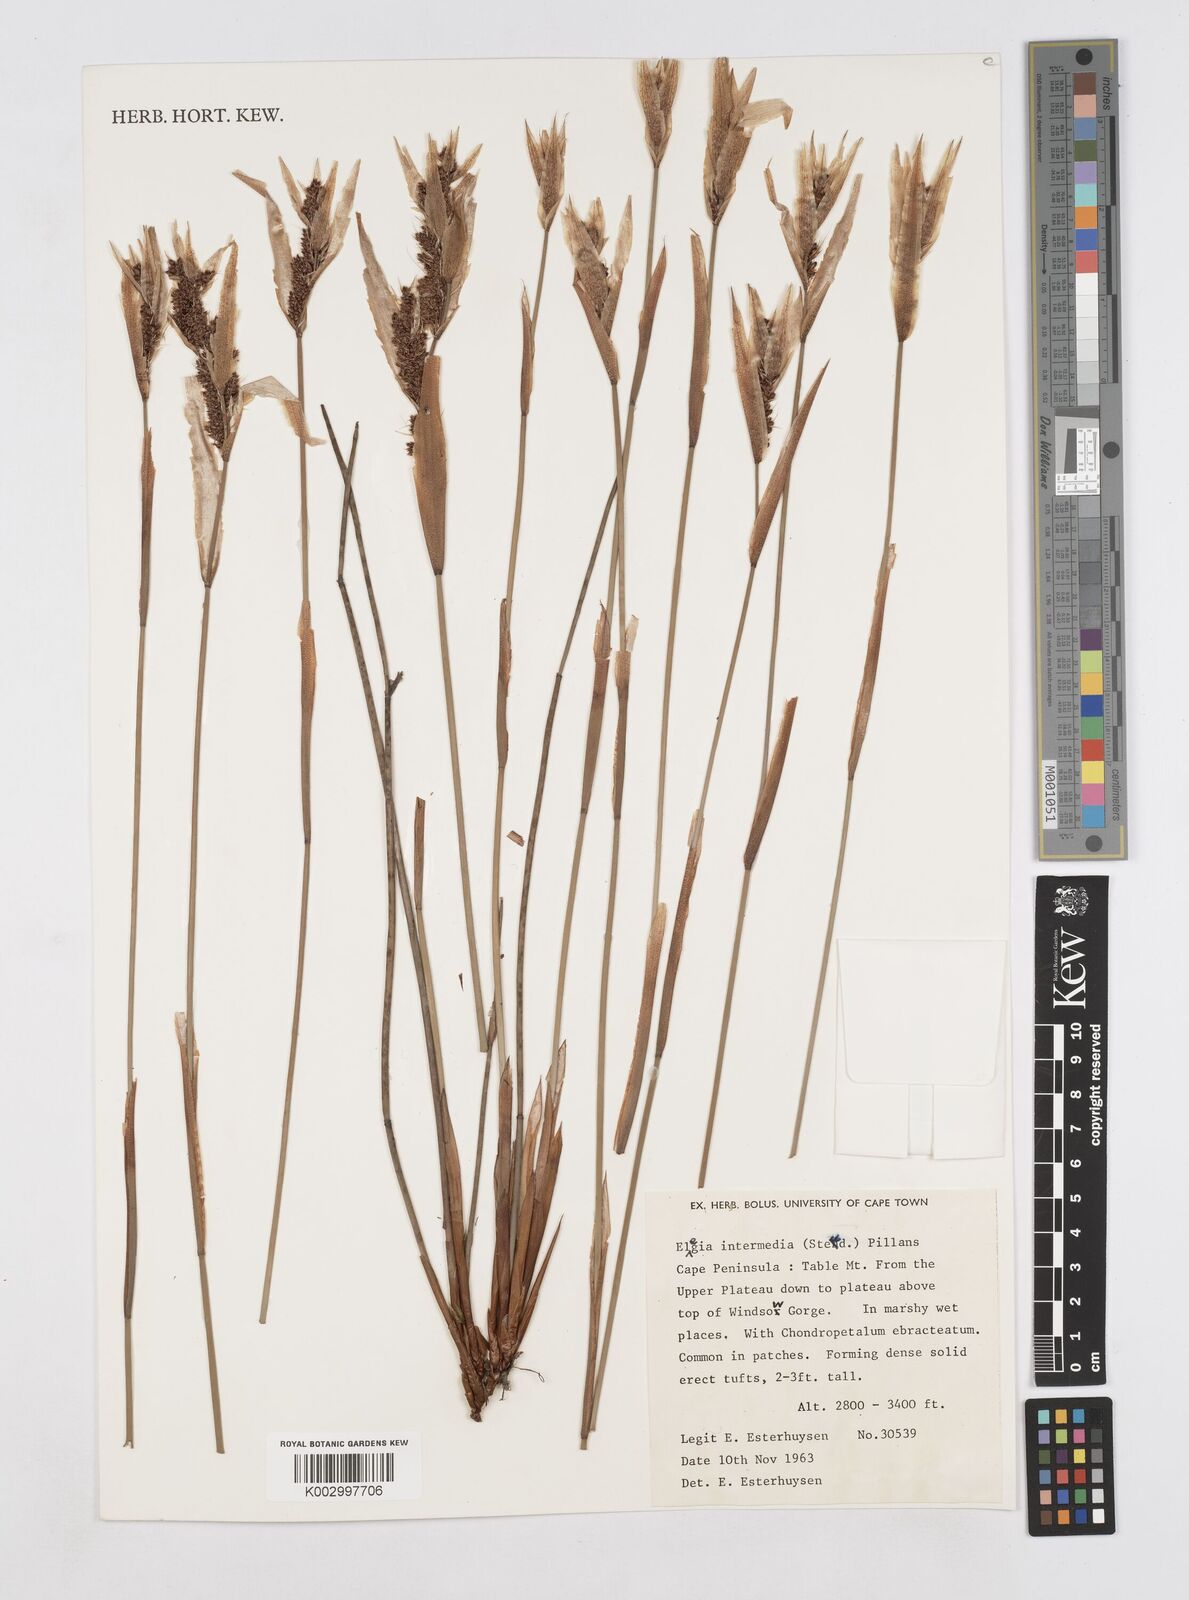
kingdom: Plantae
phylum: Tracheophyta
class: Liliopsida
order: Poales
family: Restionaceae
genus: Elegia
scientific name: Elegia intermedia
